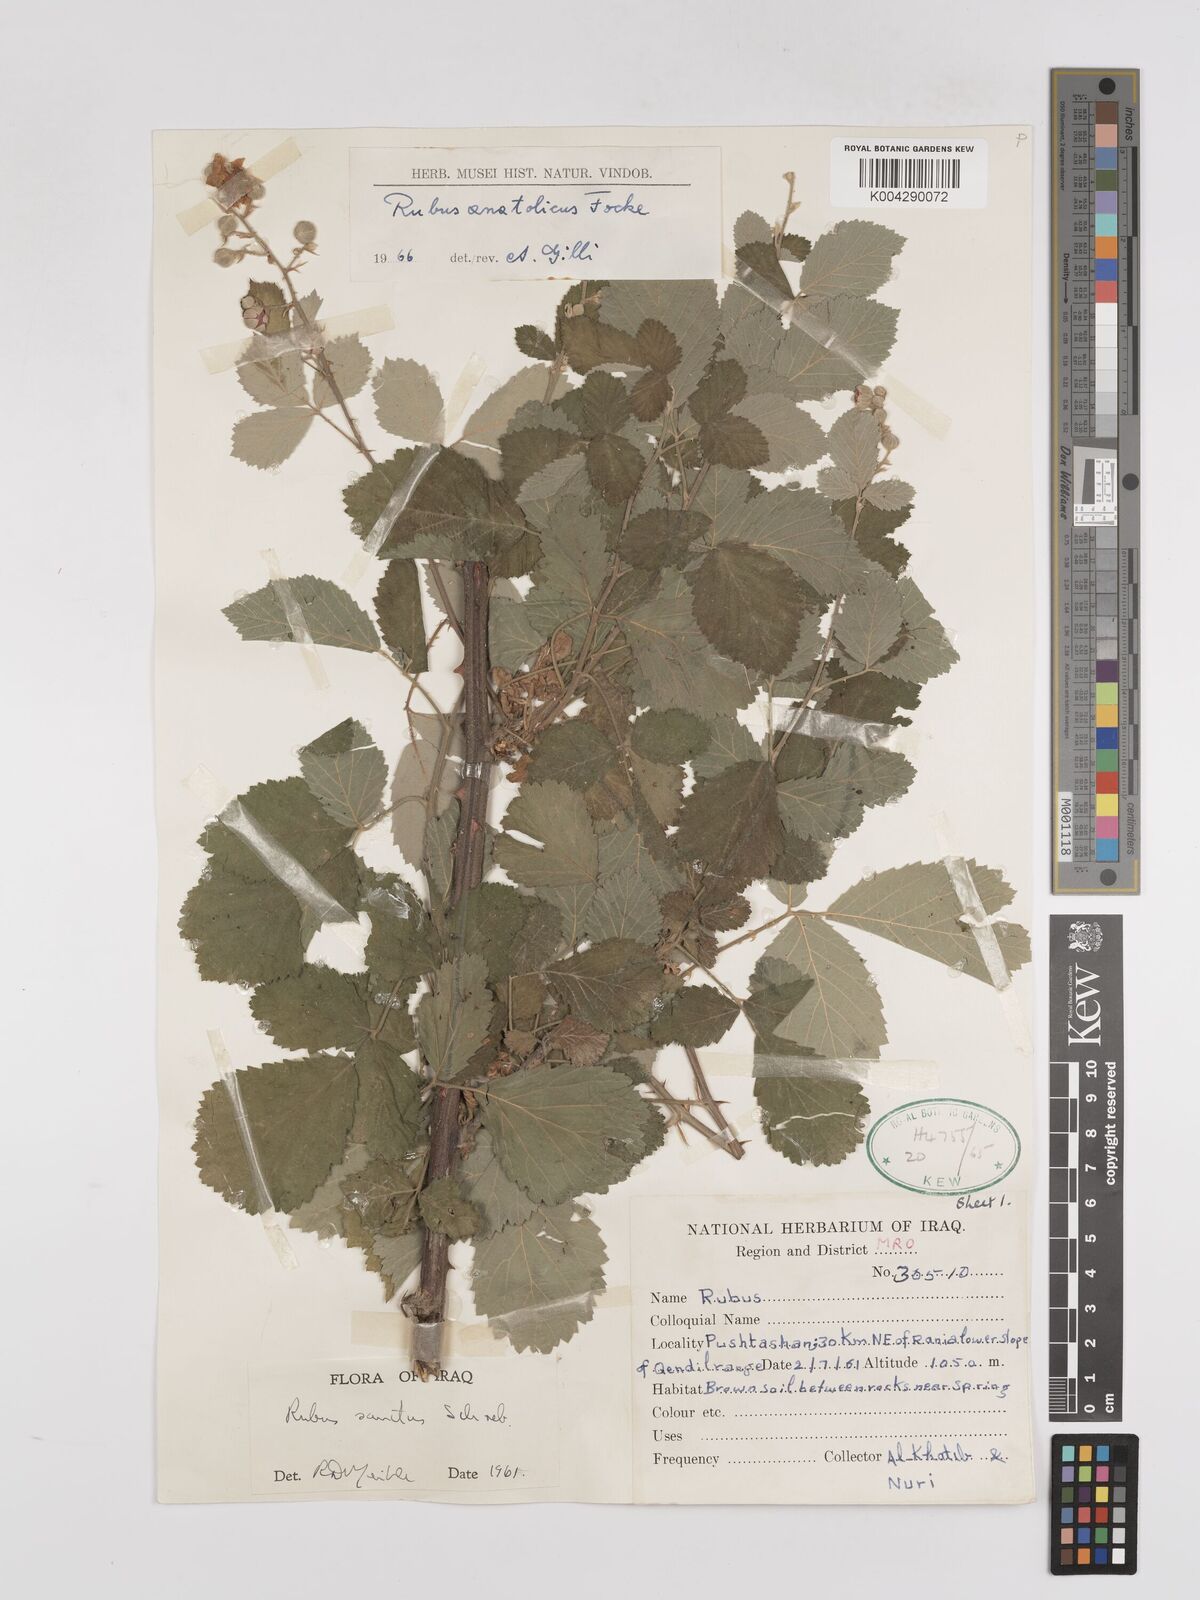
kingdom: Plantae
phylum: Tracheophyta
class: Magnoliopsida
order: Rosales
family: Rosaceae
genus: Rubus
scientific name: Rubus sanctus
